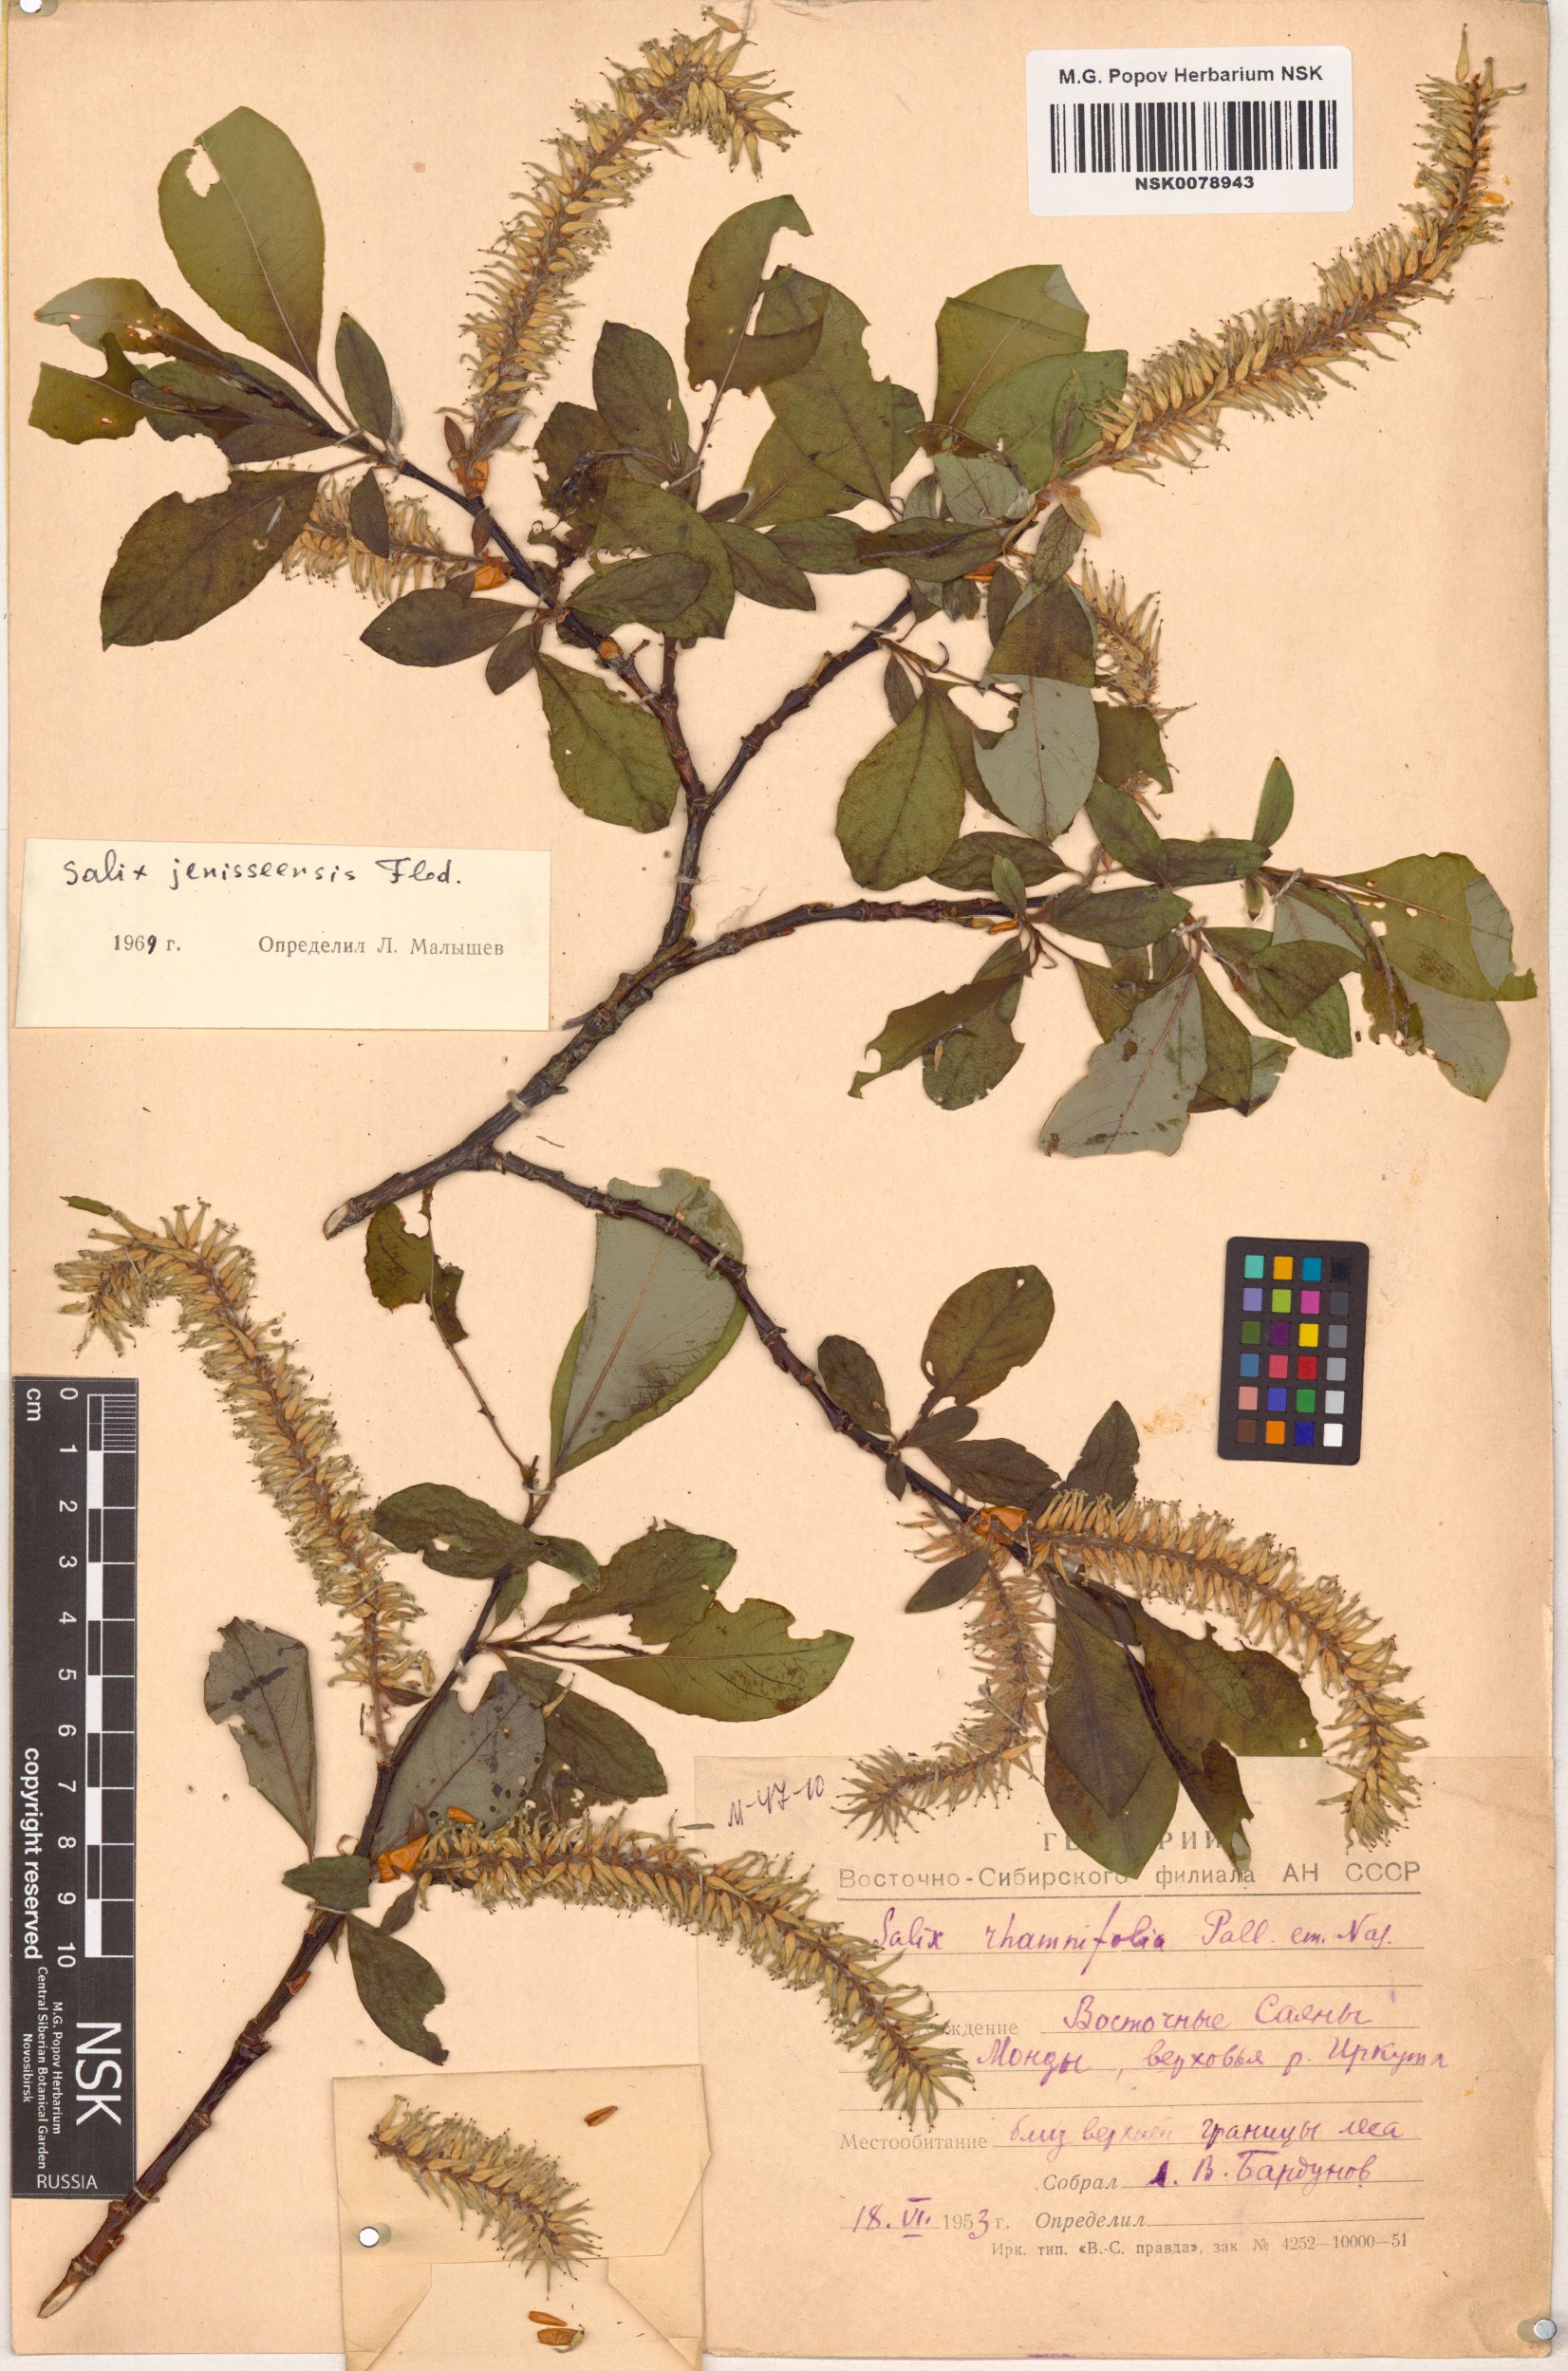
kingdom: Plantae
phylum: Tracheophyta
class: Magnoliopsida
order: Malpighiales
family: Salicaceae
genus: Salix
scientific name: Salix jenisseensis
